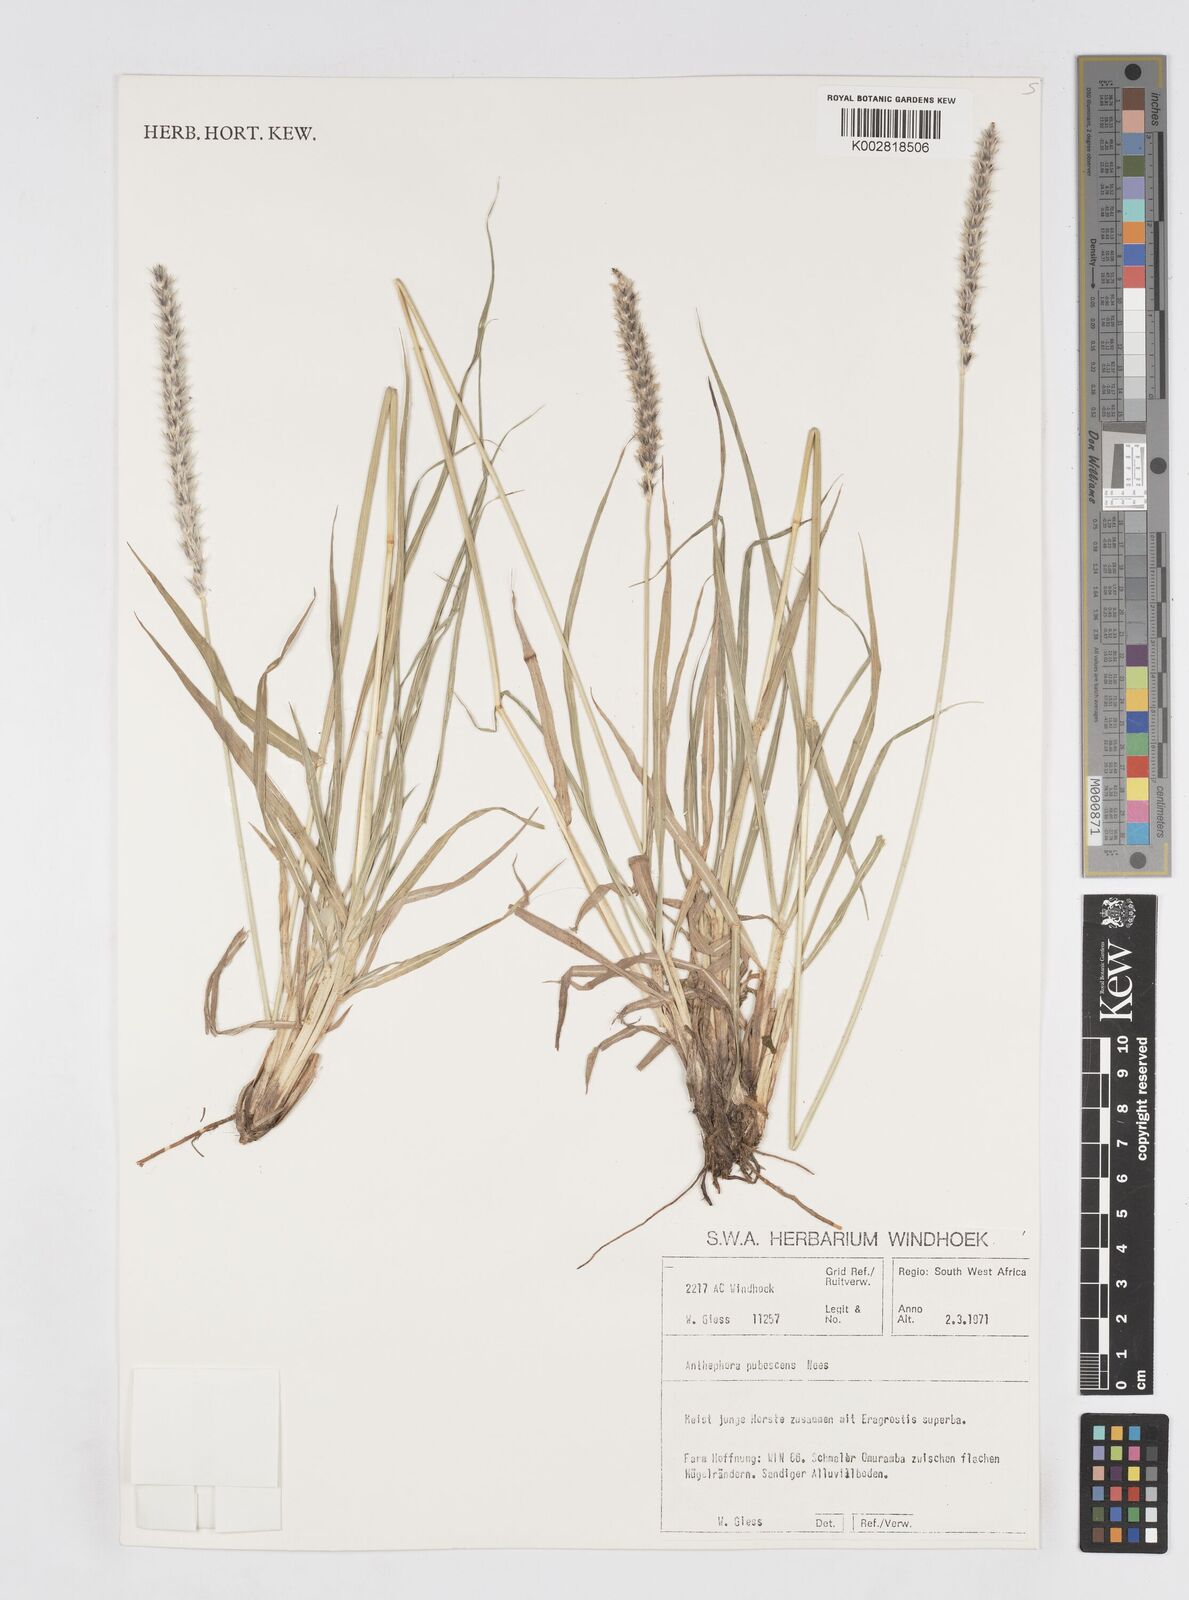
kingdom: Plantae
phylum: Tracheophyta
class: Liliopsida
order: Poales
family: Poaceae
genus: Anthephora
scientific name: Anthephora pubescens
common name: Wool grass
